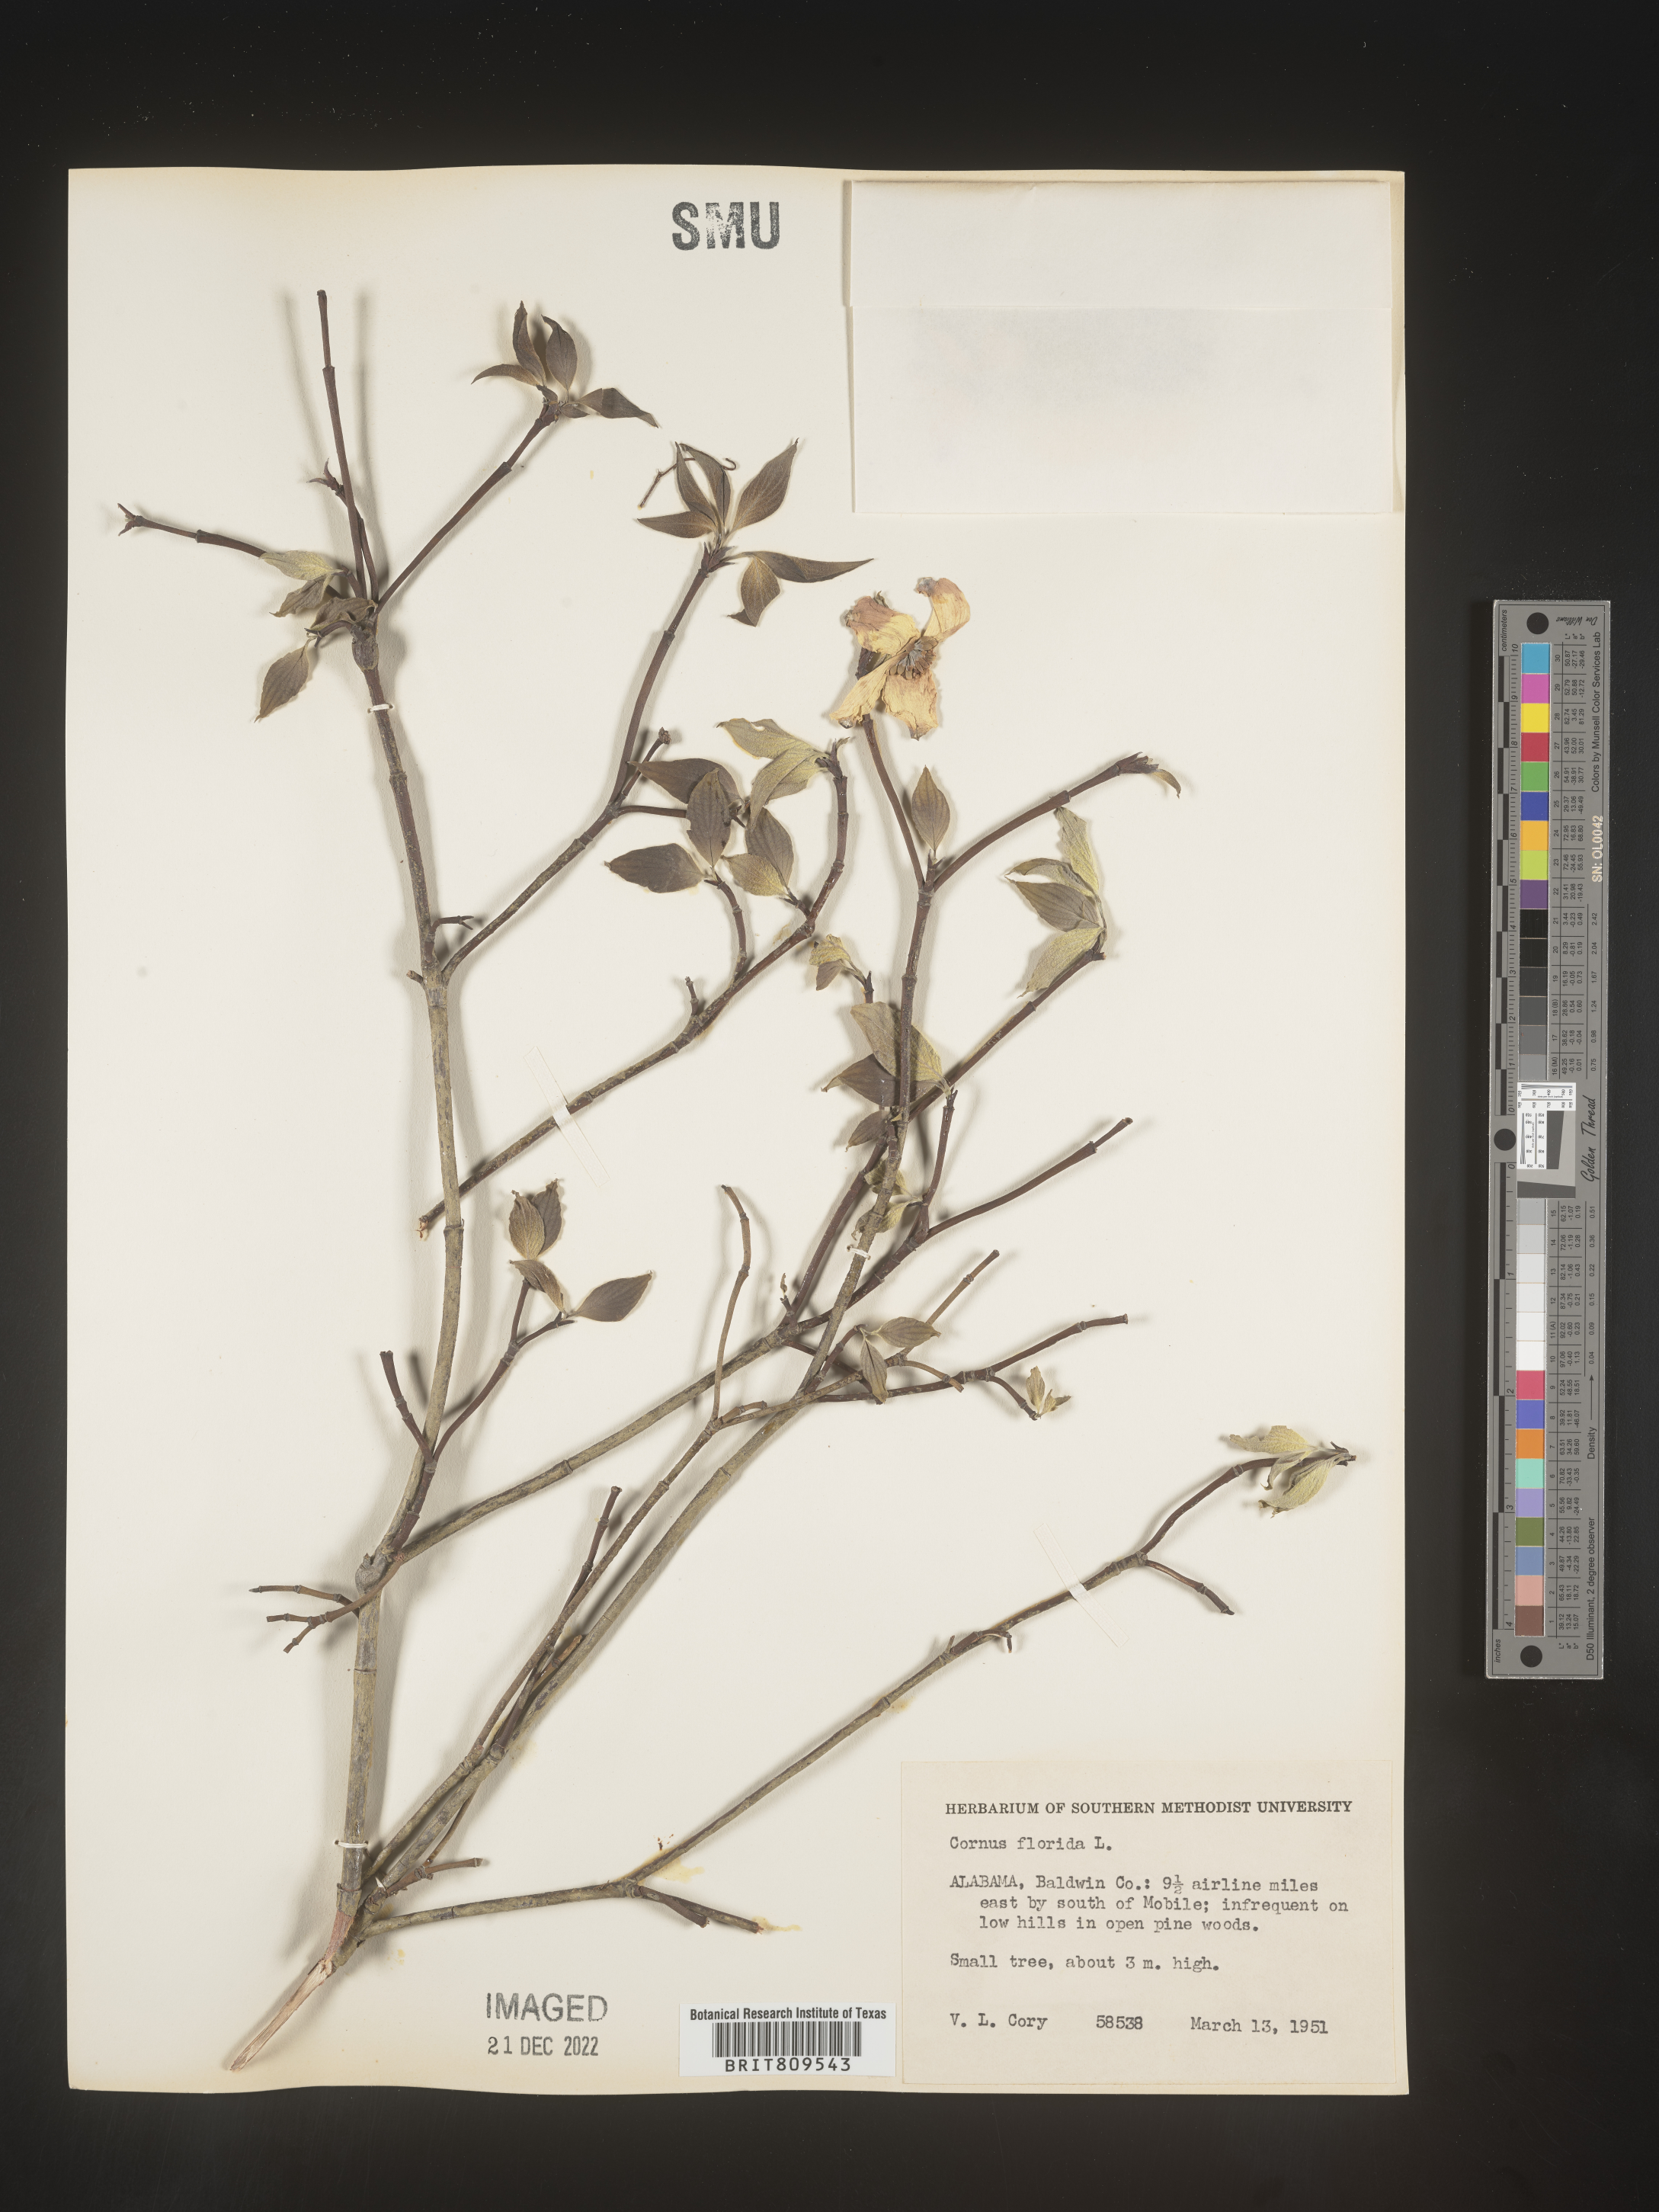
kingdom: Plantae
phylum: Tracheophyta
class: Magnoliopsida
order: Cornales
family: Cornaceae
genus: Cornus
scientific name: Cornus florida
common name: Flowering dogwood
